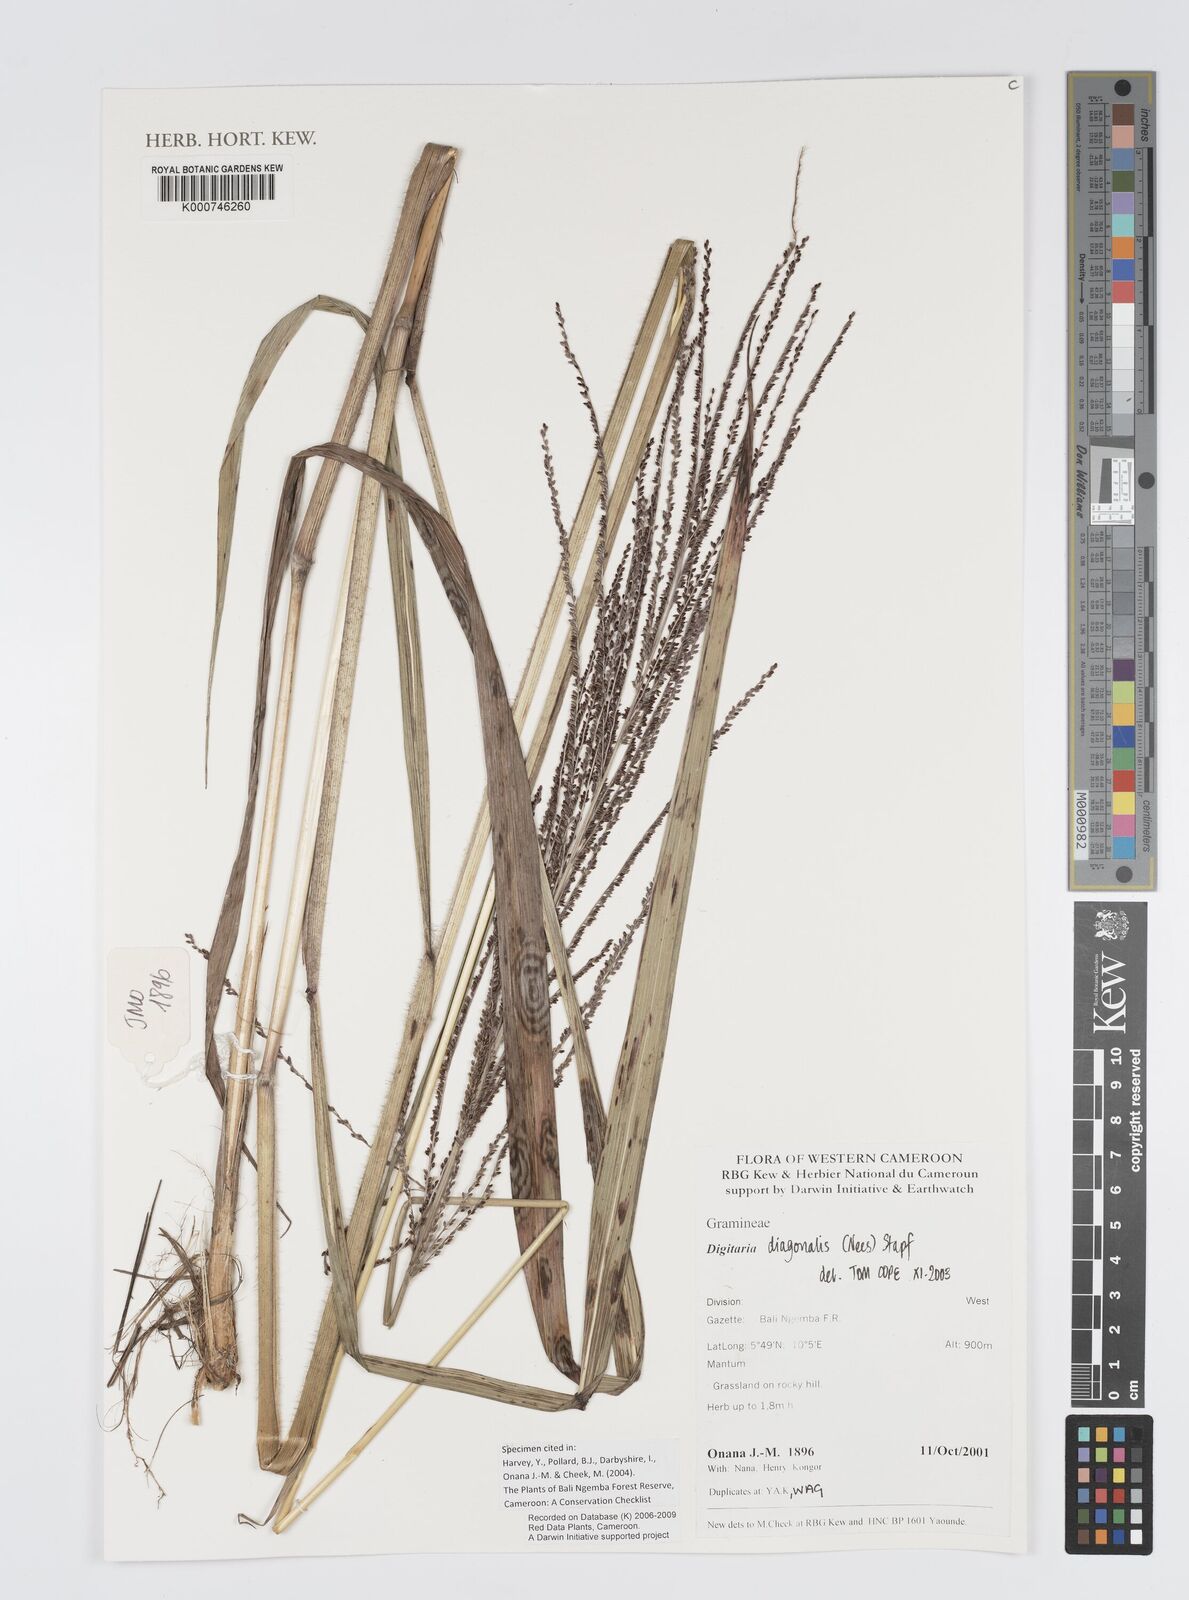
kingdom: Plantae
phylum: Tracheophyta
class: Liliopsida
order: Poales
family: Poaceae
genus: Digitaria
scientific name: Digitaria diagonalis
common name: Brown-seed finger grass
